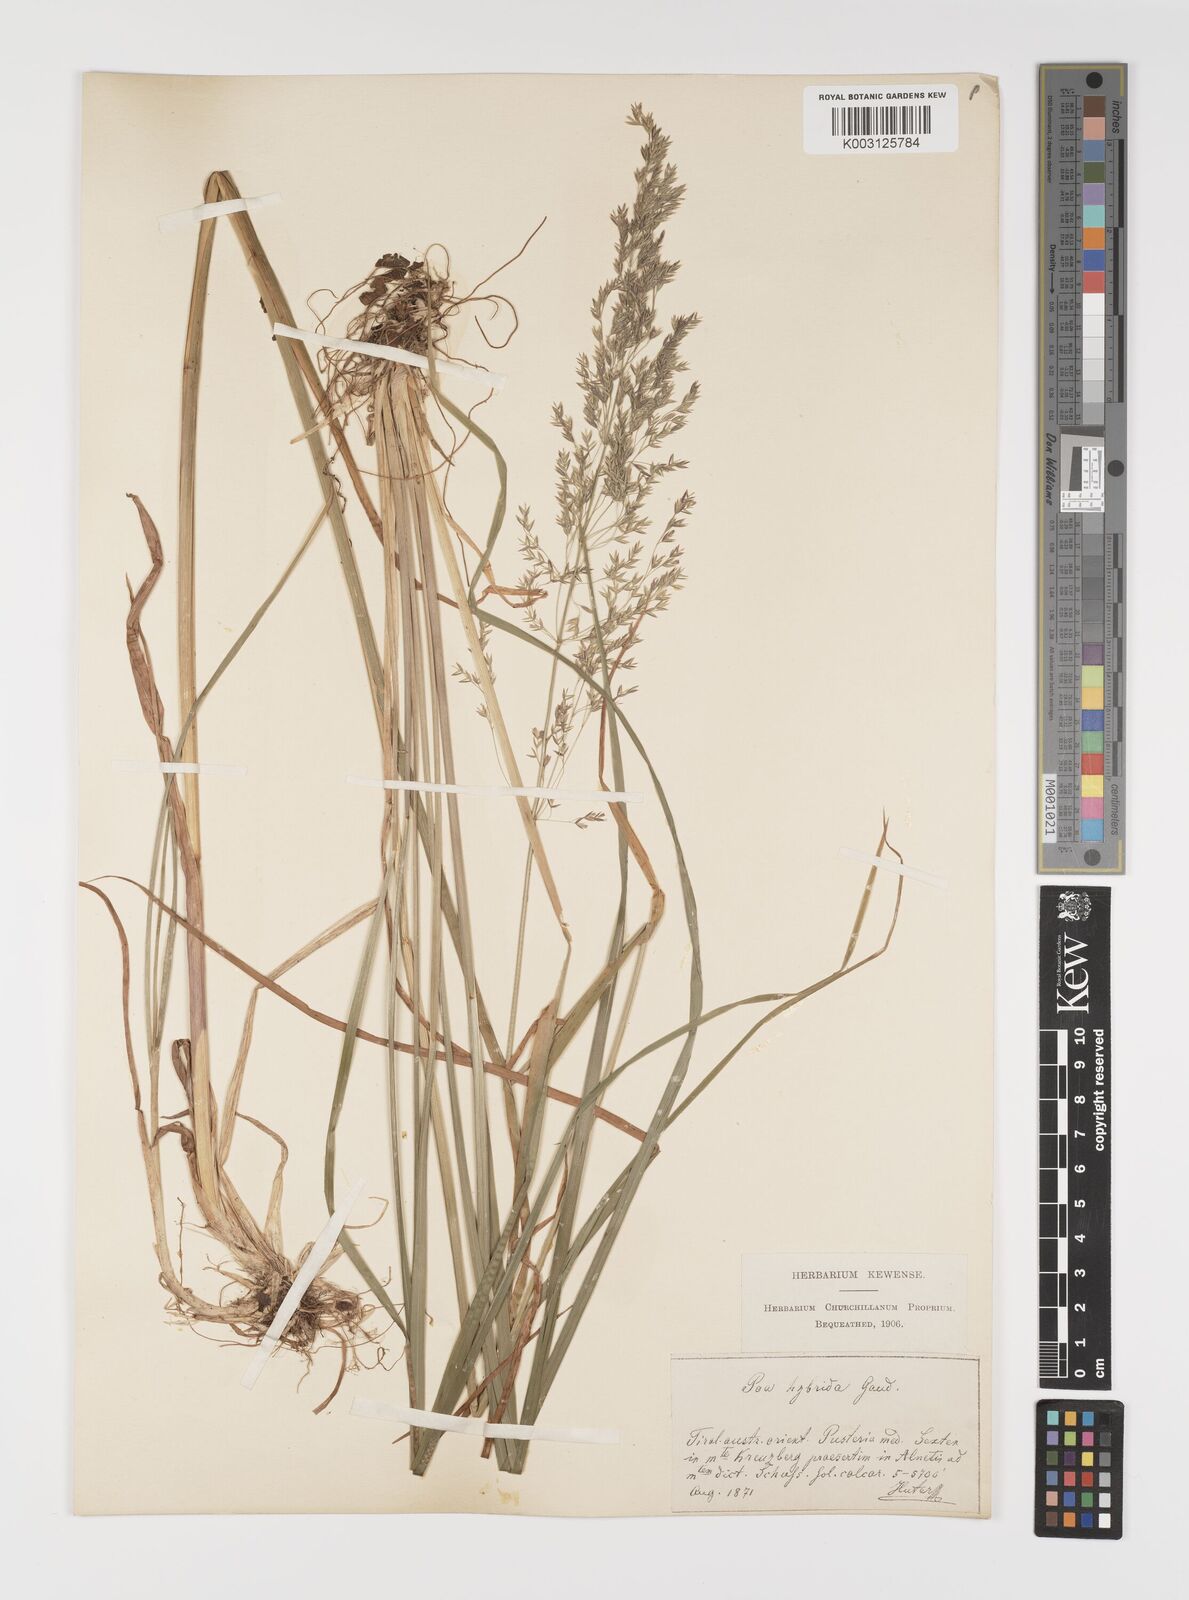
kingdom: Plantae
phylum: Tracheophyta
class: Liliopsida
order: Poales
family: Poaceae
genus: Poa
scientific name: Poa hybrida
